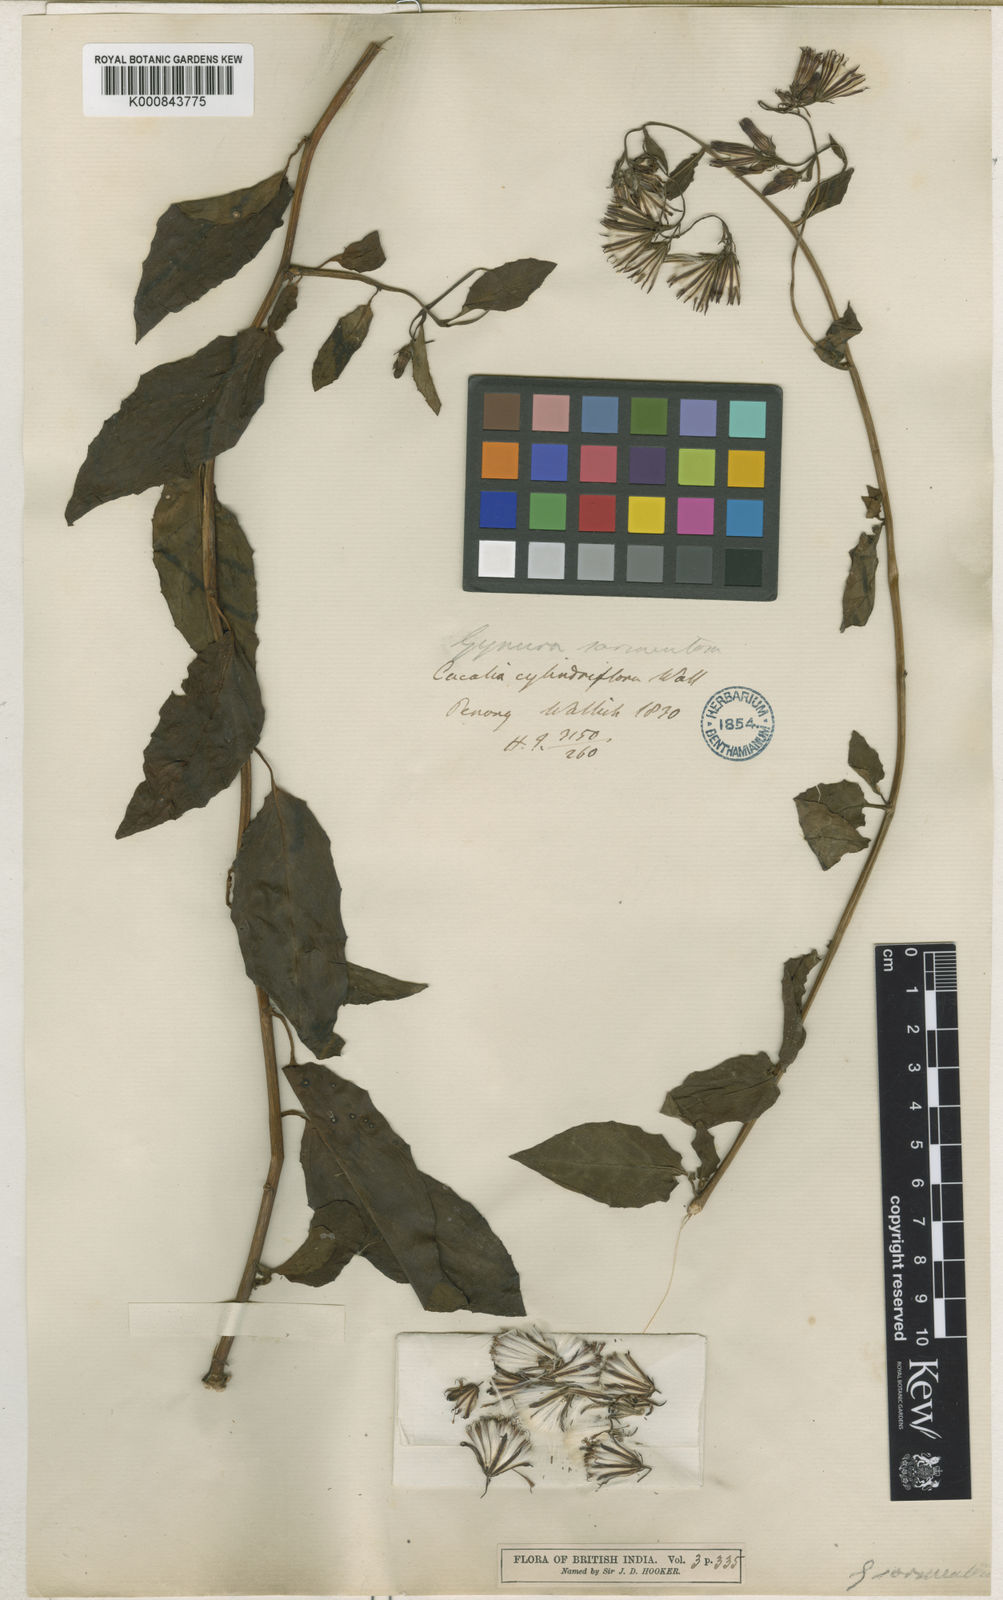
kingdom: Plantae
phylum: Tracheophyta
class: Magnoliopsida
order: Asterales
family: Asteraceae
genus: Gynura
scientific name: Gynura procumbens
